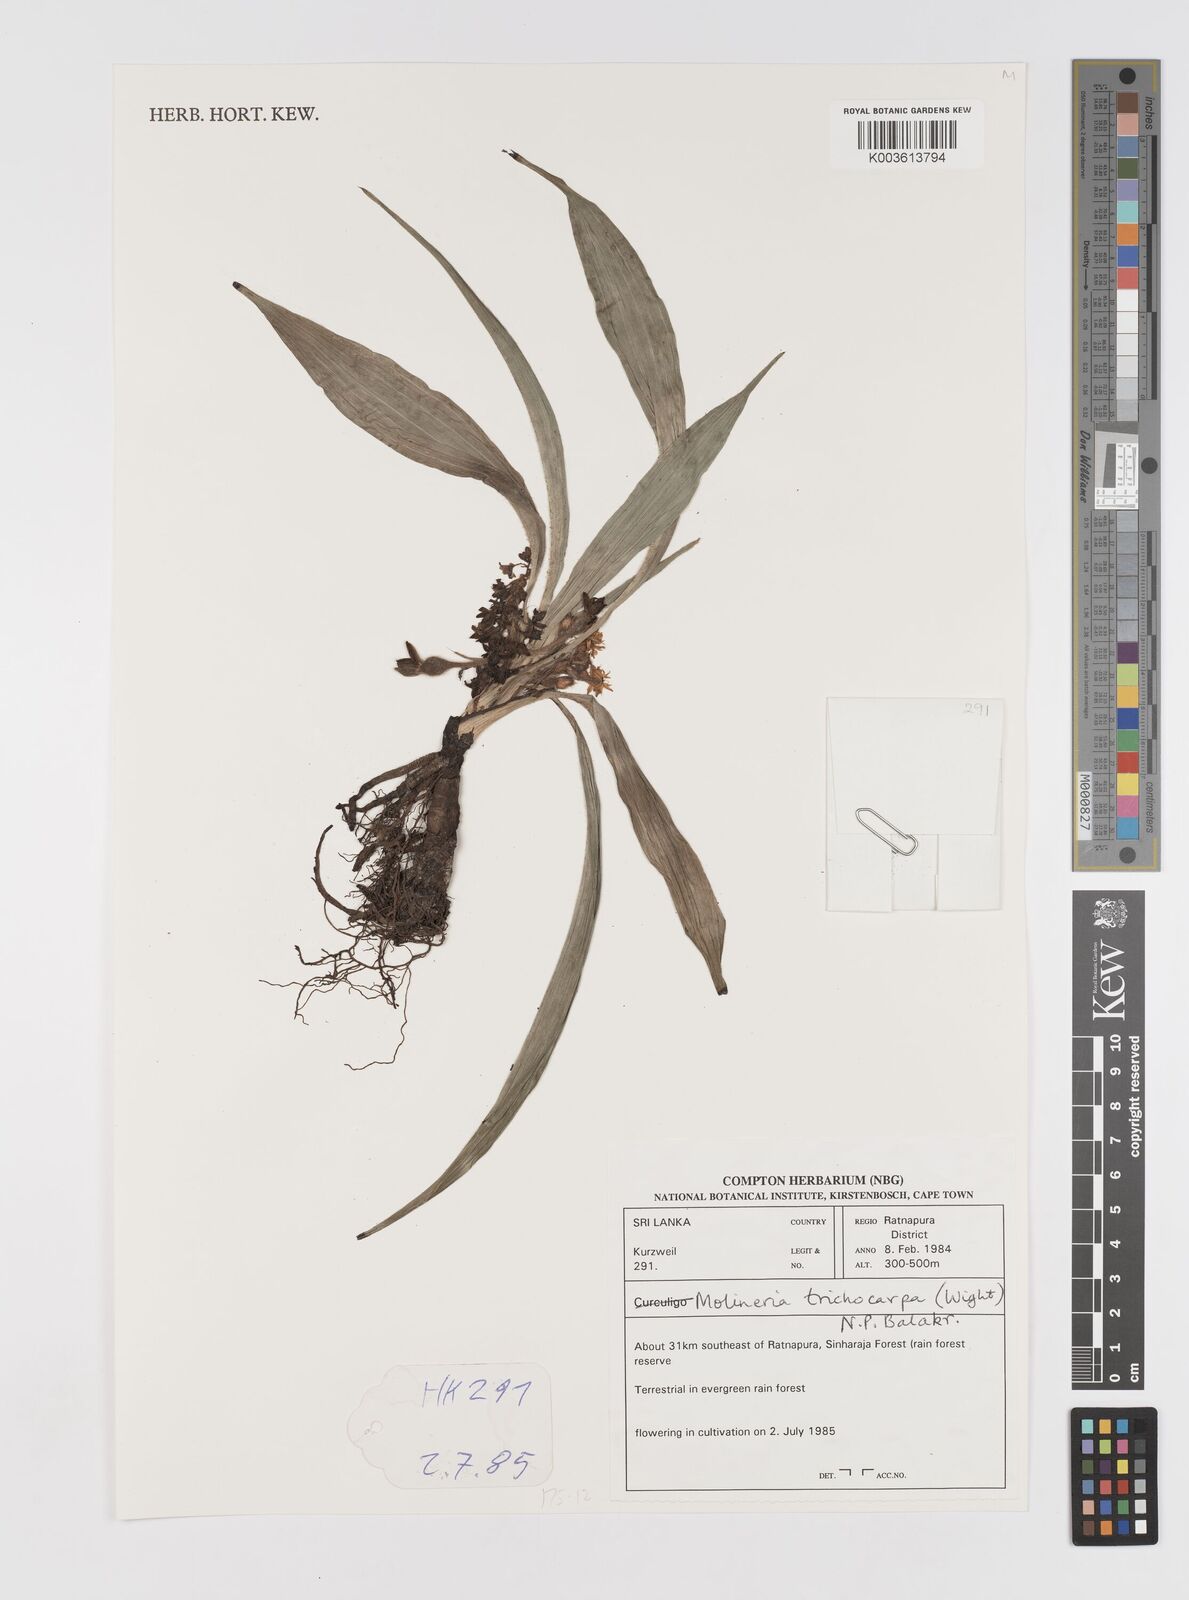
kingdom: Plantae
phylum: Tracheophyta
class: Liliopsida
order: Asparagales
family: Hypoxidaceae
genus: Curculigo
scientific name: Curculigo trichocarpa
